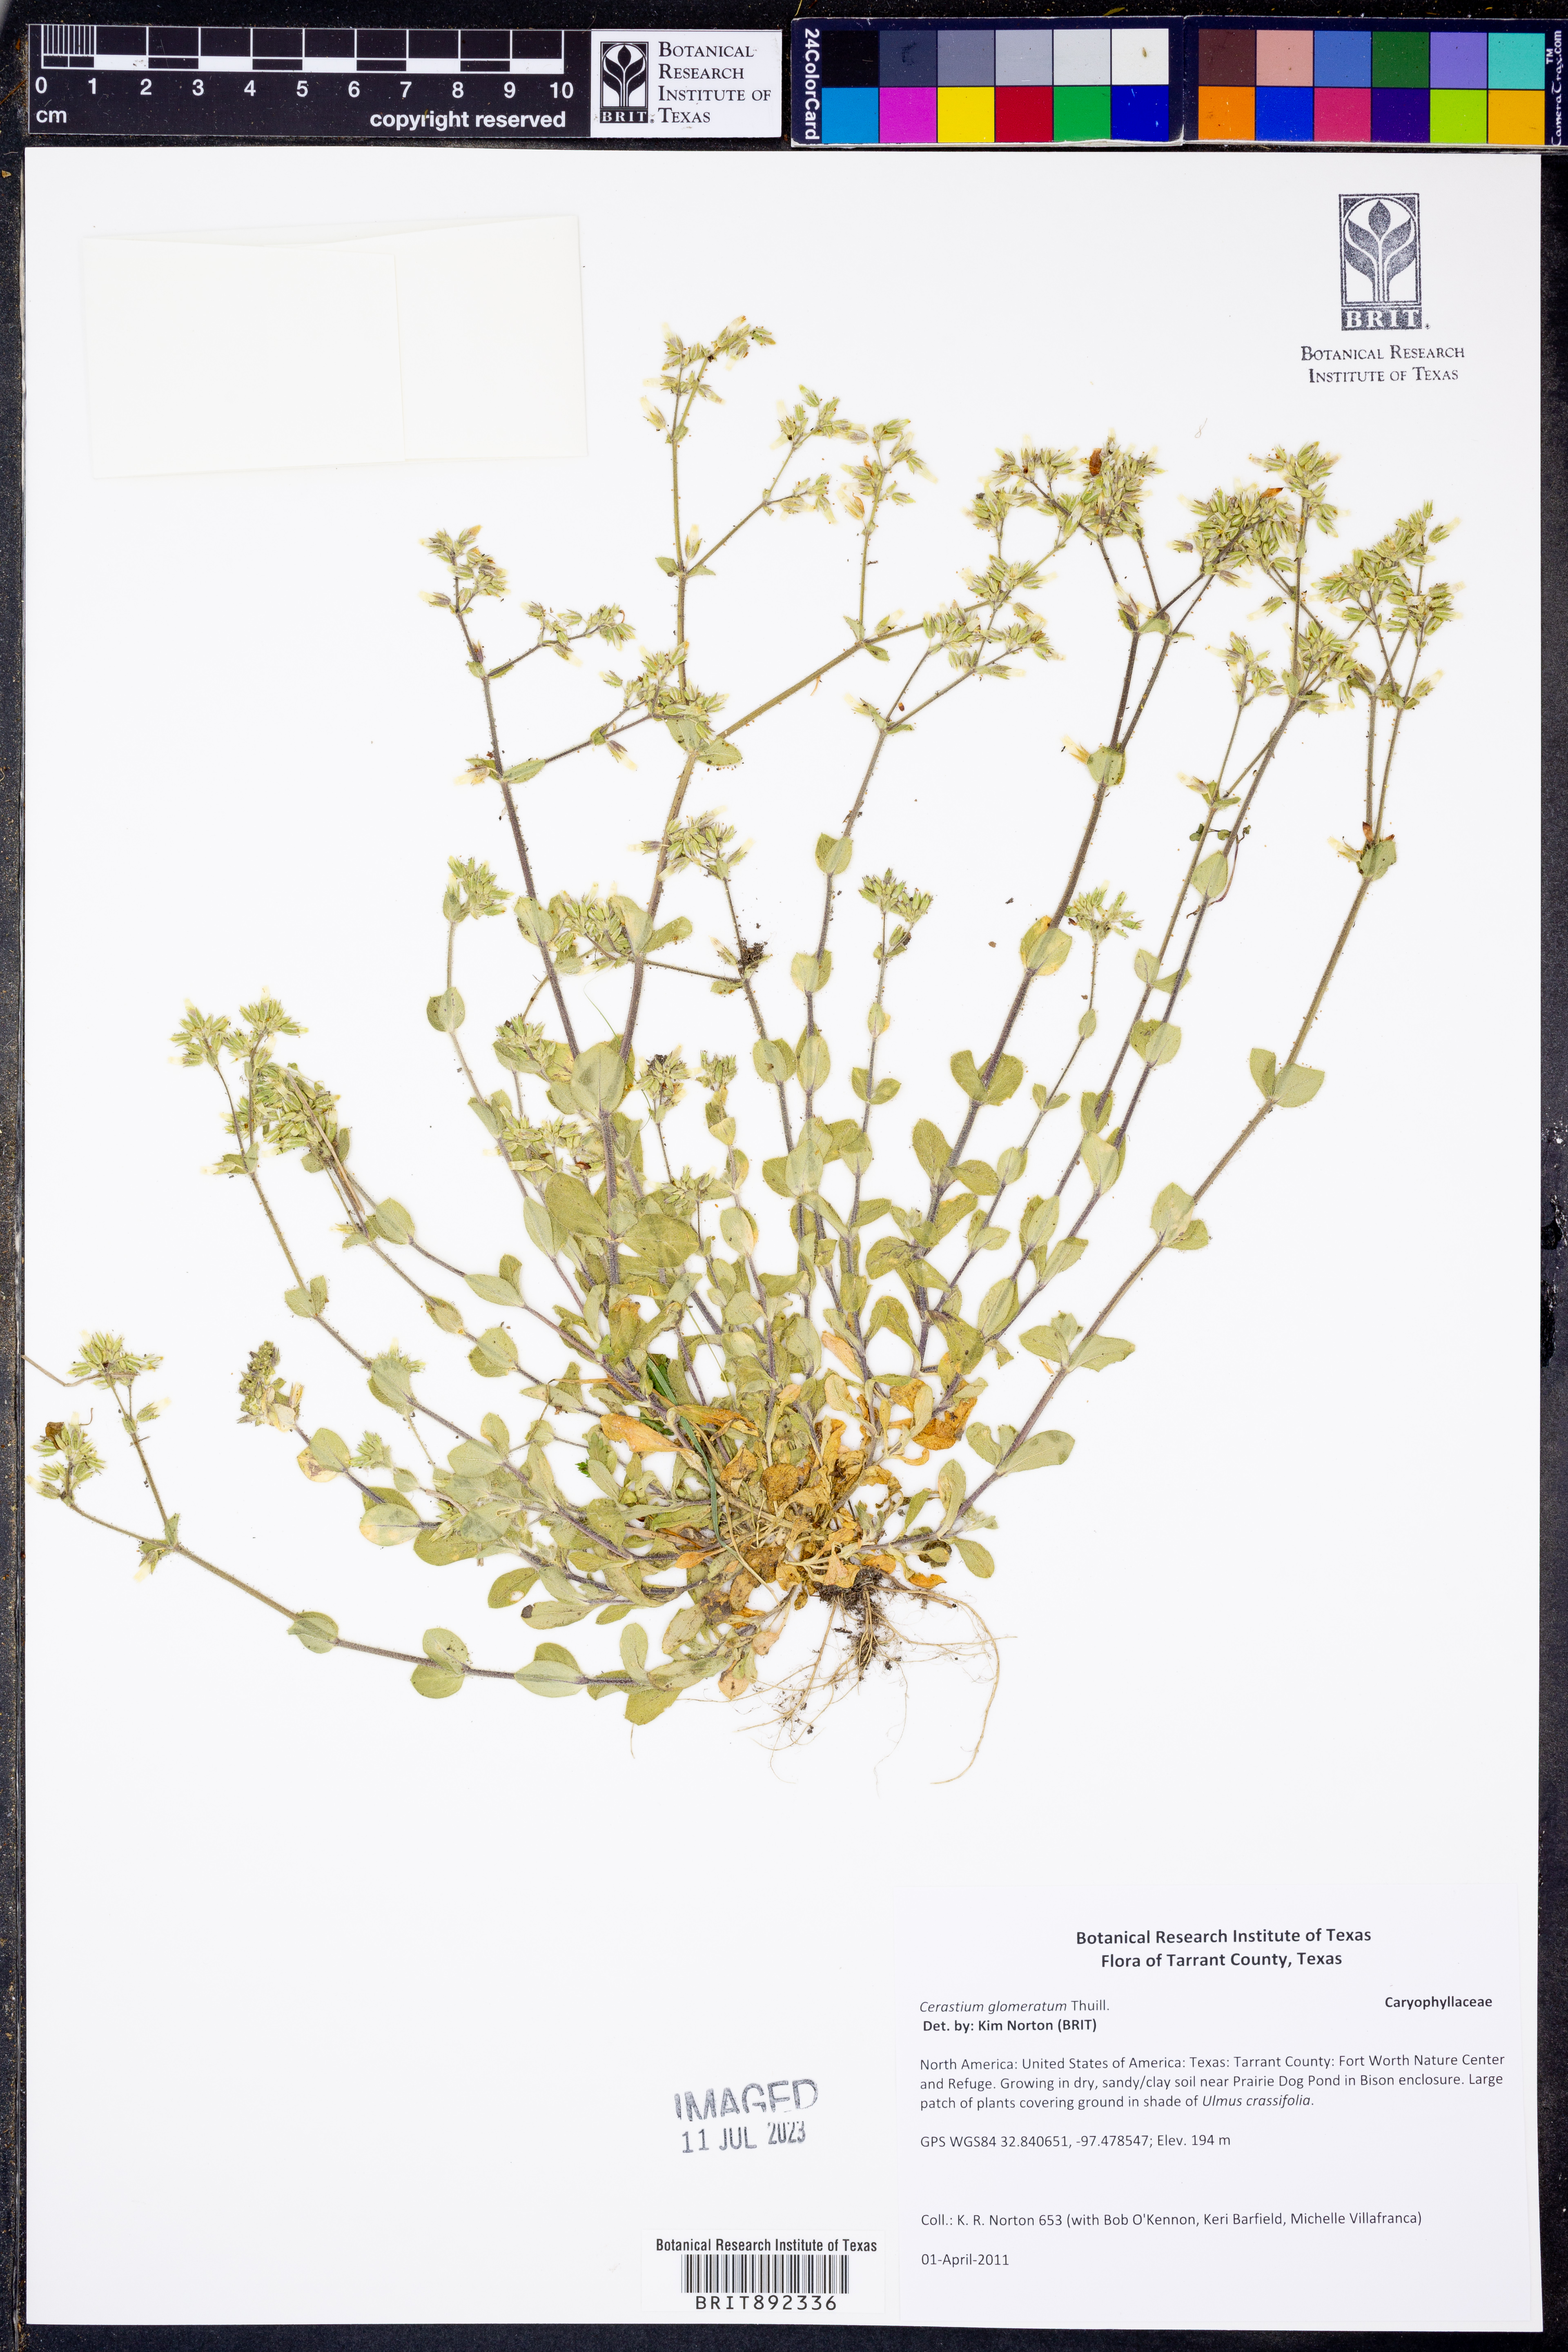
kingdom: Plantae
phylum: Tracheophyta
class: Magnoliopsida
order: Caryophyllales
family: Caryophyllaceae
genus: Cerastium
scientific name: Cerastium glomeratum
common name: Sticky chickweed
